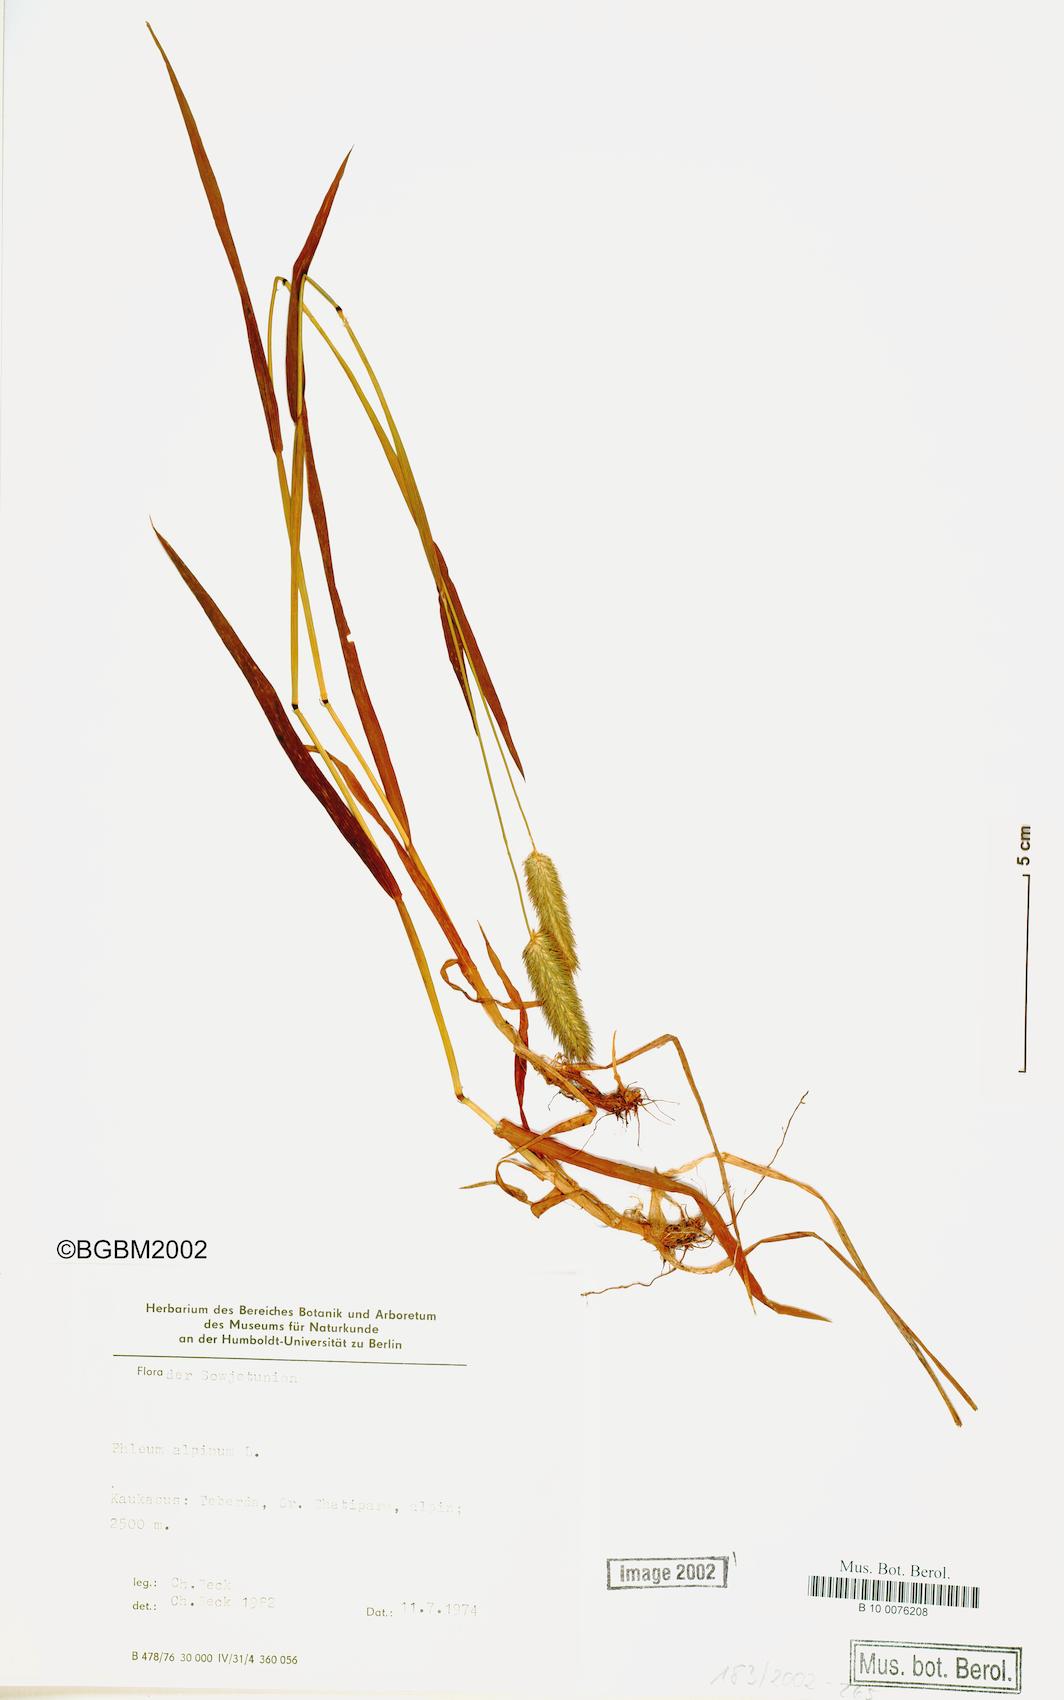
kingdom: Plantae
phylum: Tracheophyta
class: Liliopsida
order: Poales
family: Poaceae
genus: Phleum
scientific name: Phleum alpinum
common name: Alpine cat's-tail
